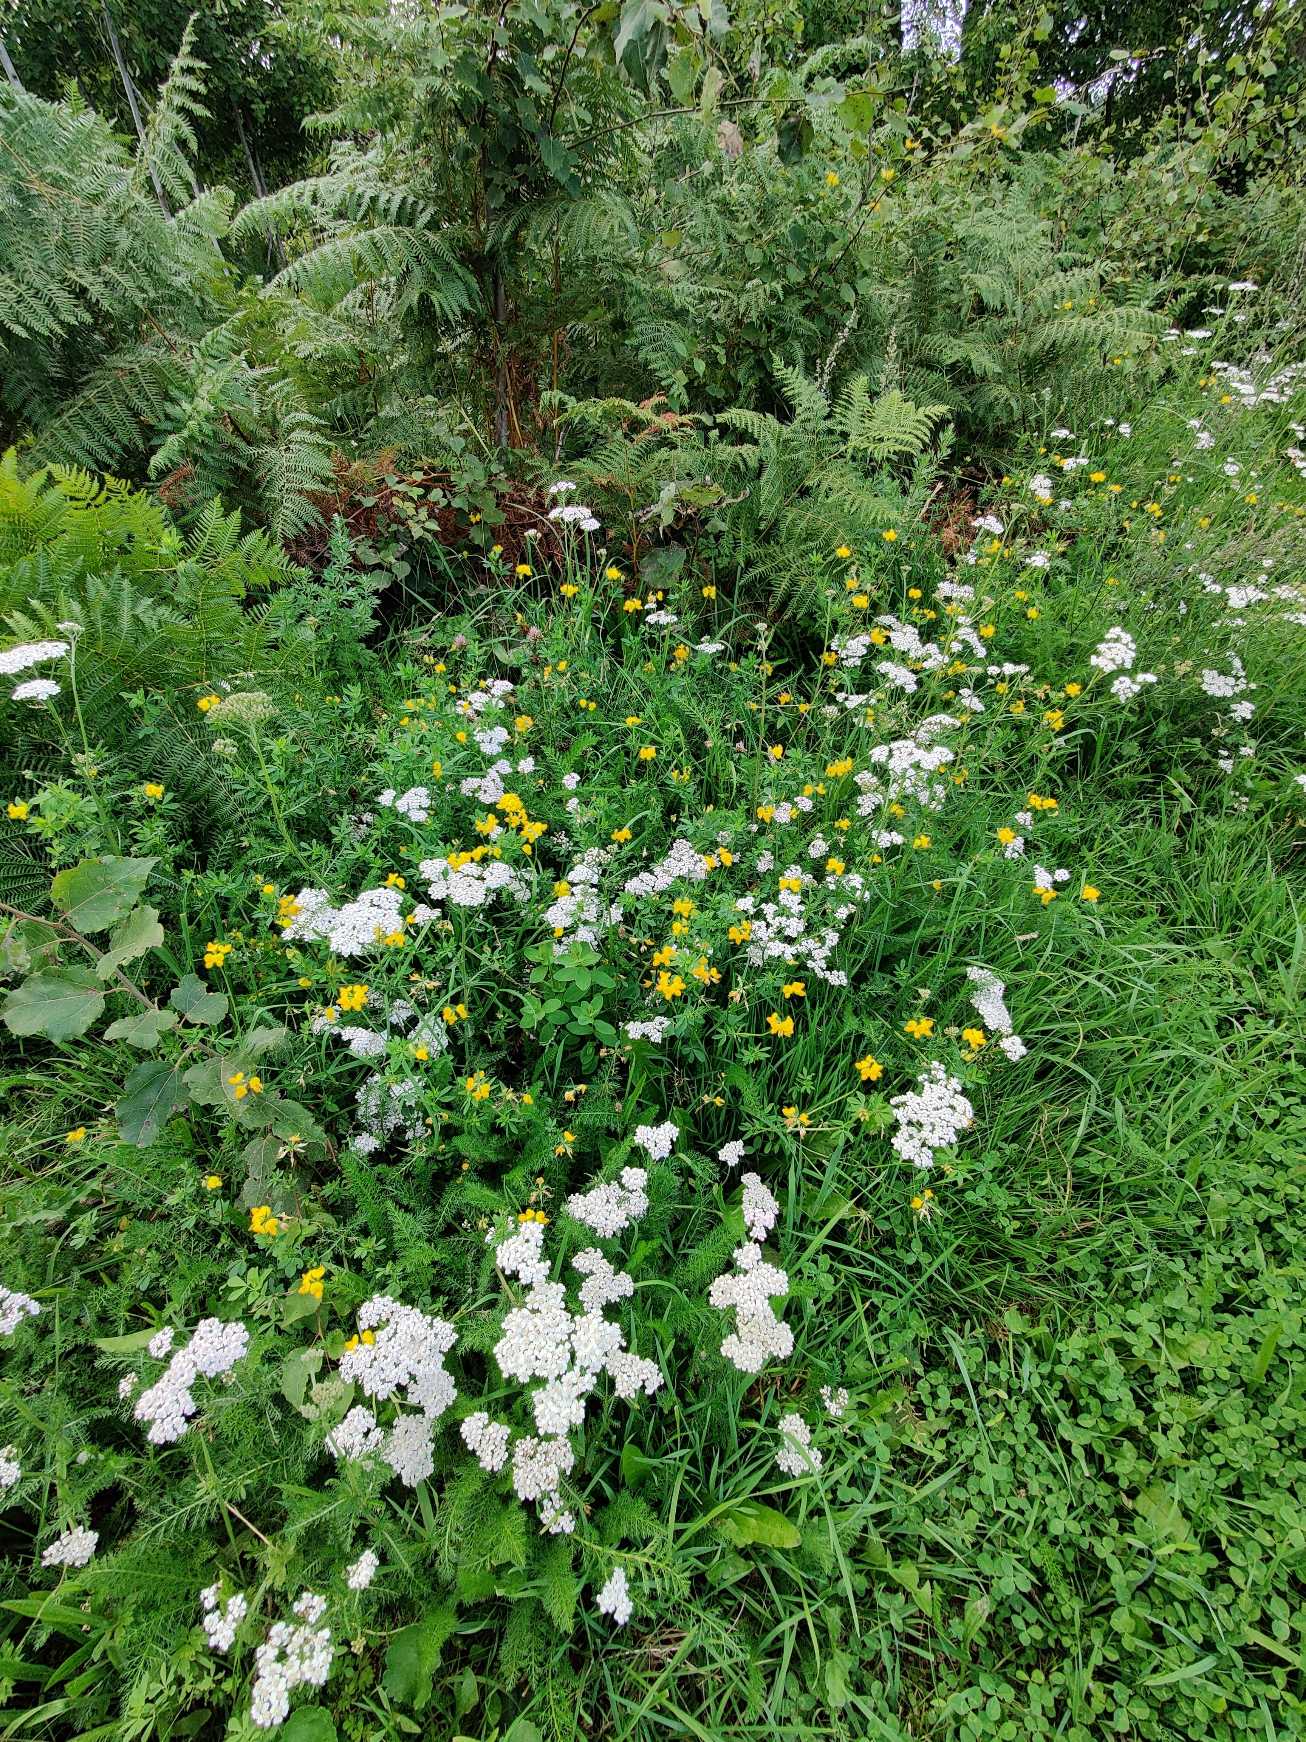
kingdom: Plantae
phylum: Tracheophyta
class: Magnoliopsida
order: Fabales
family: Fabaceae
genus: Lotus
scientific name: Lotus corniculatus
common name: Almindelig kællingetand
